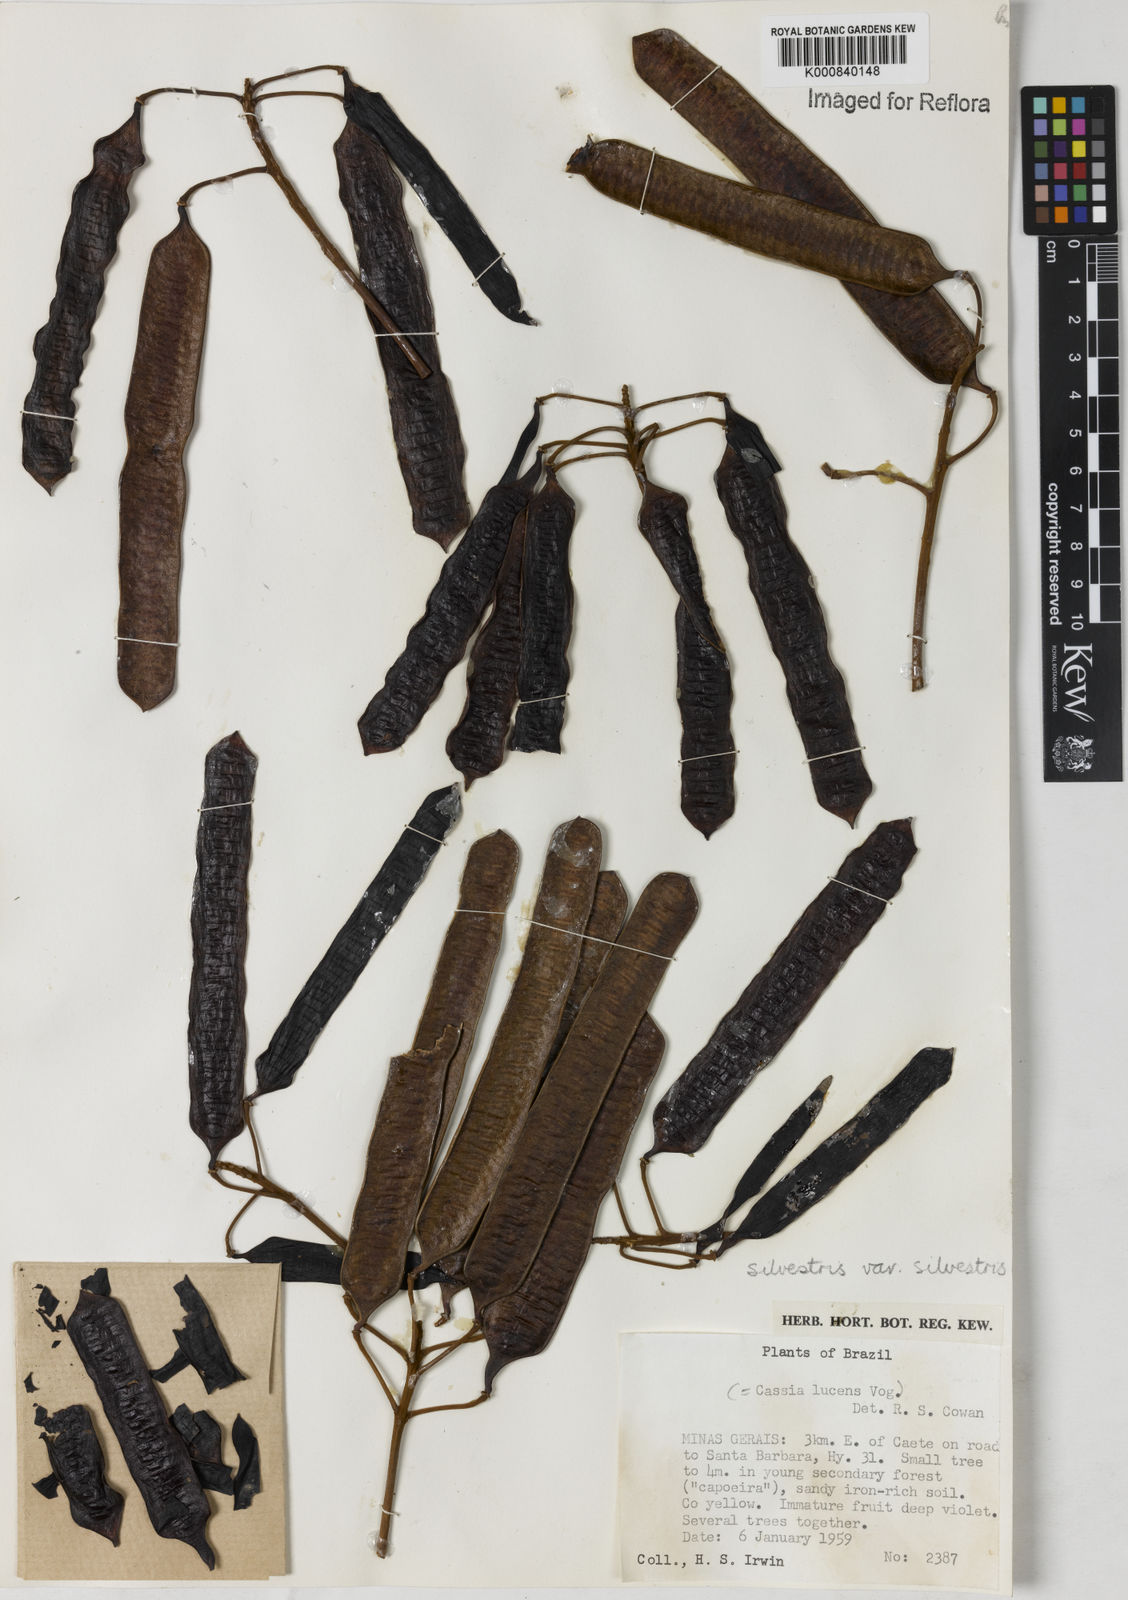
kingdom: Plantae
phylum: Tracheophyta
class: Magnoliopsida
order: Fabales
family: Fabaceae
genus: Senna
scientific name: Senna silvestris
